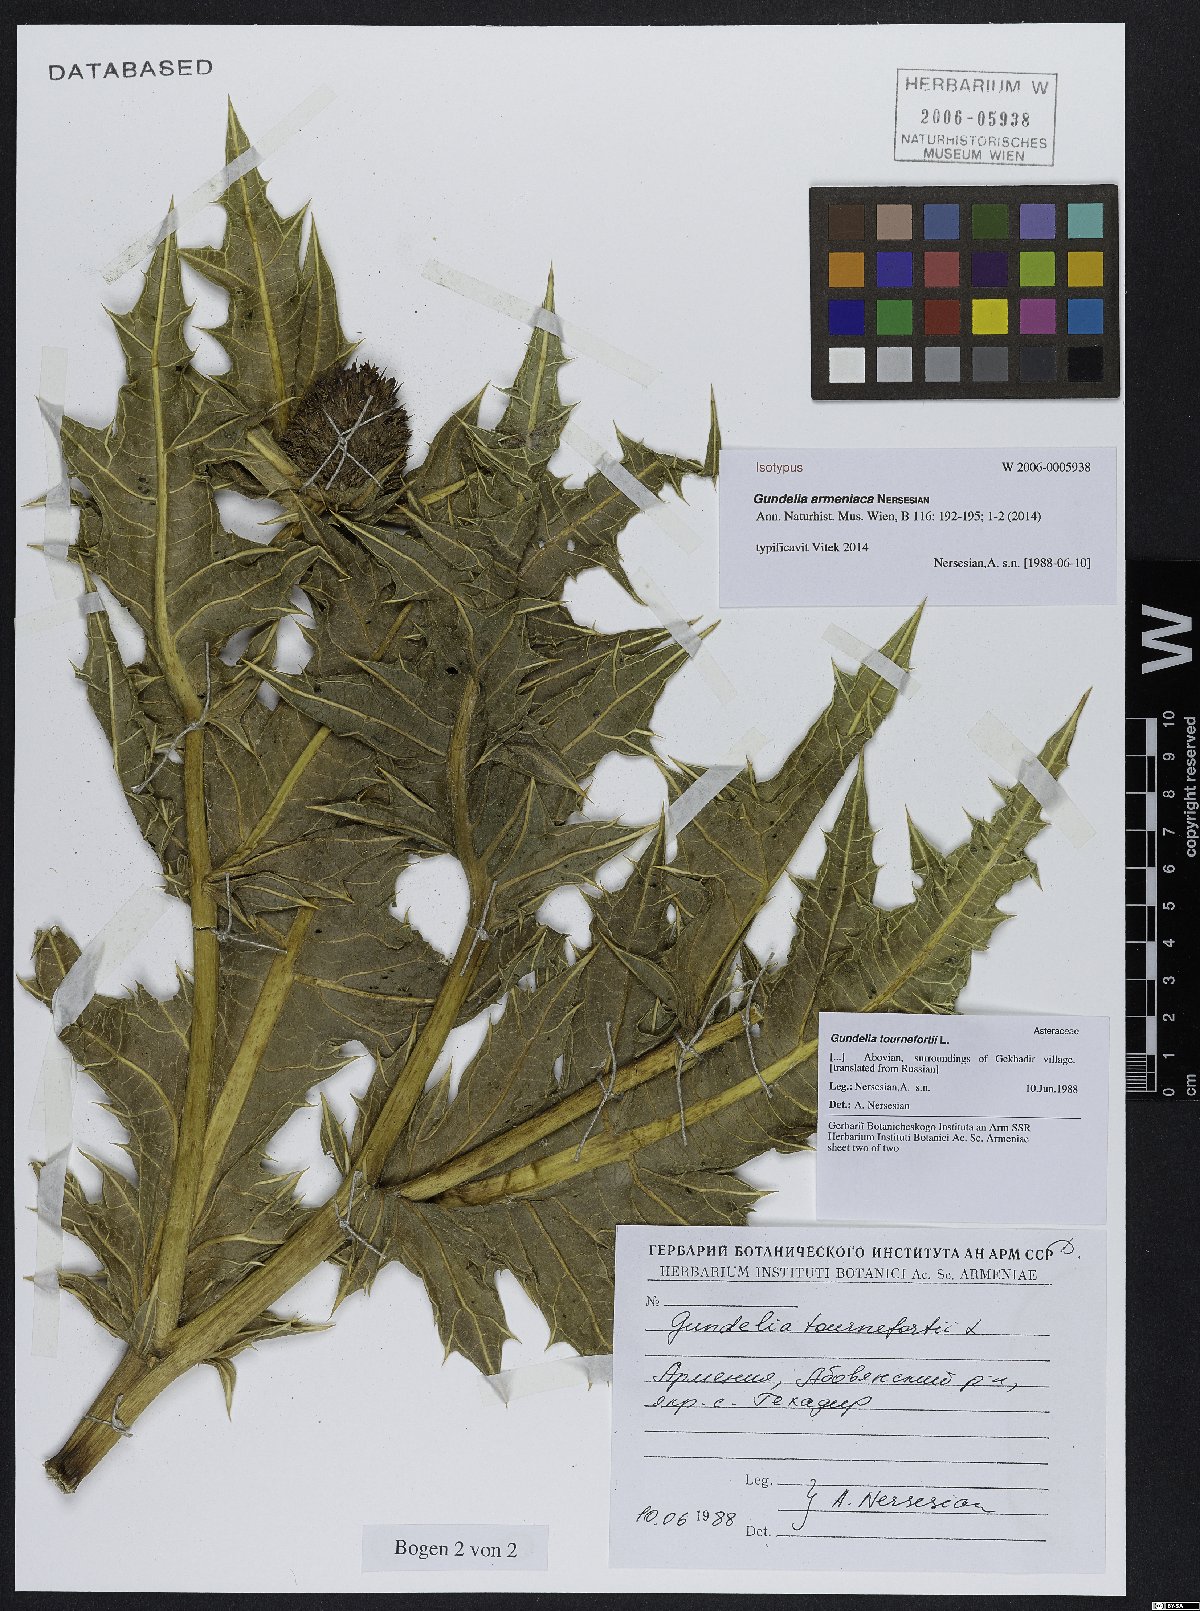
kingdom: Plantae
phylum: Tracheophyta
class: Magnoliopsida
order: Asterales
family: Asteraceae
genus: Gundelia
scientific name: Gundelia armeniaca
